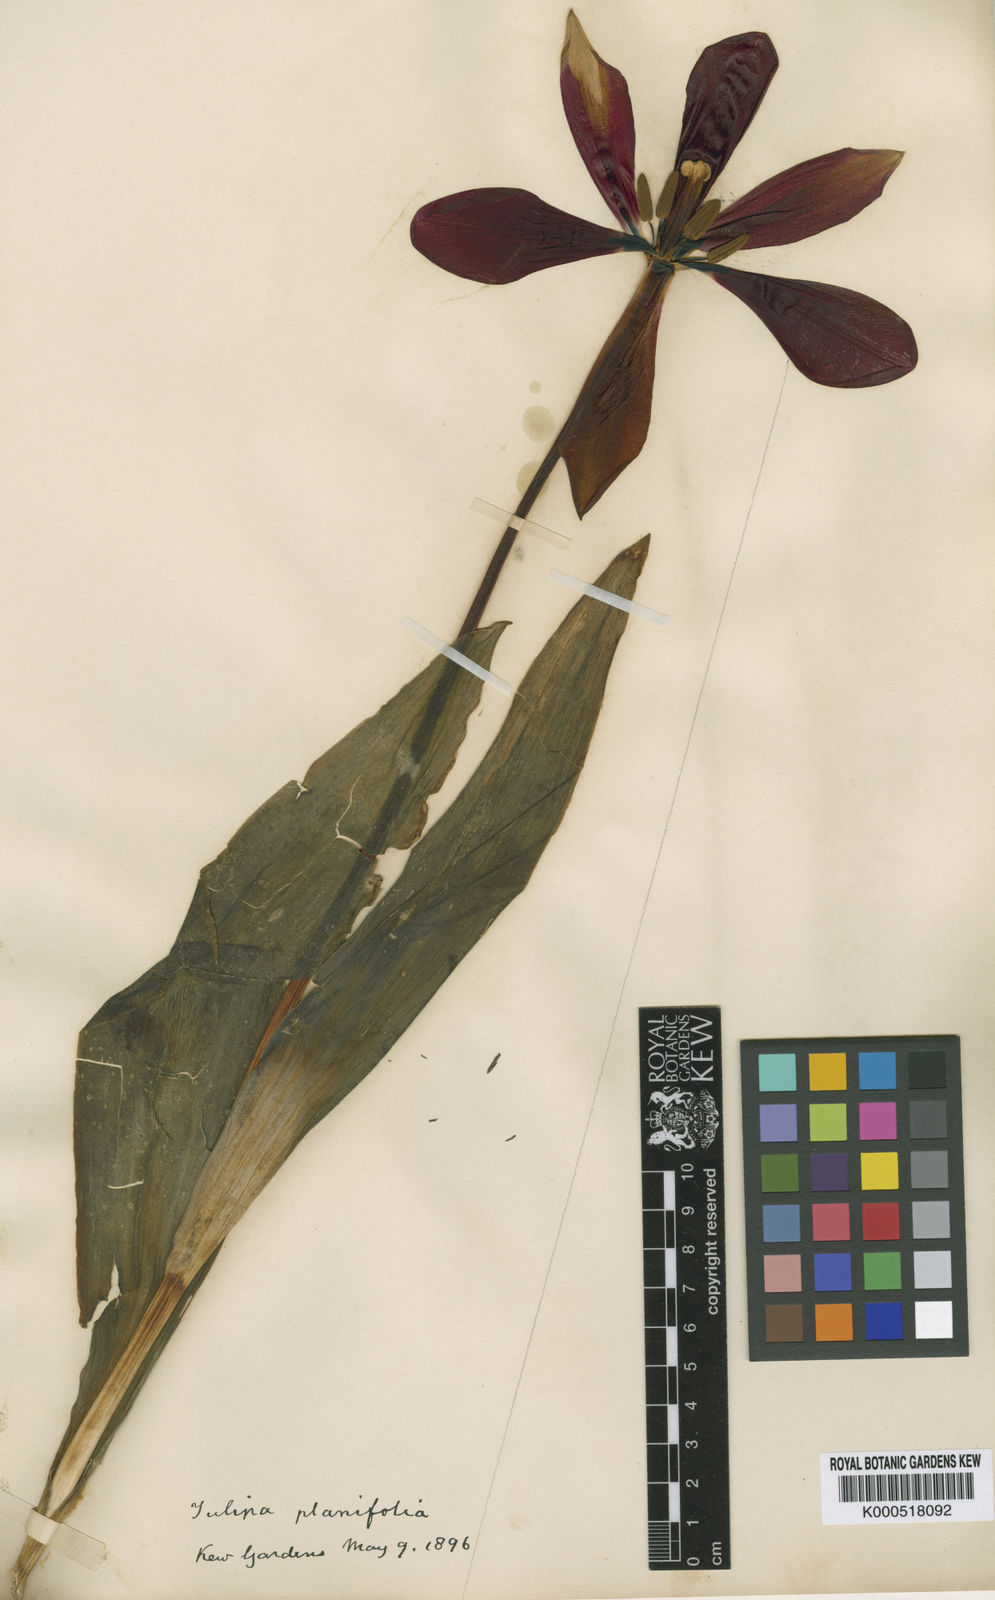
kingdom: Plantae
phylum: Tracheophyta
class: Liliopsida
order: Liliales
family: Liliaceae
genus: Tulipa
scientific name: Tulipa
